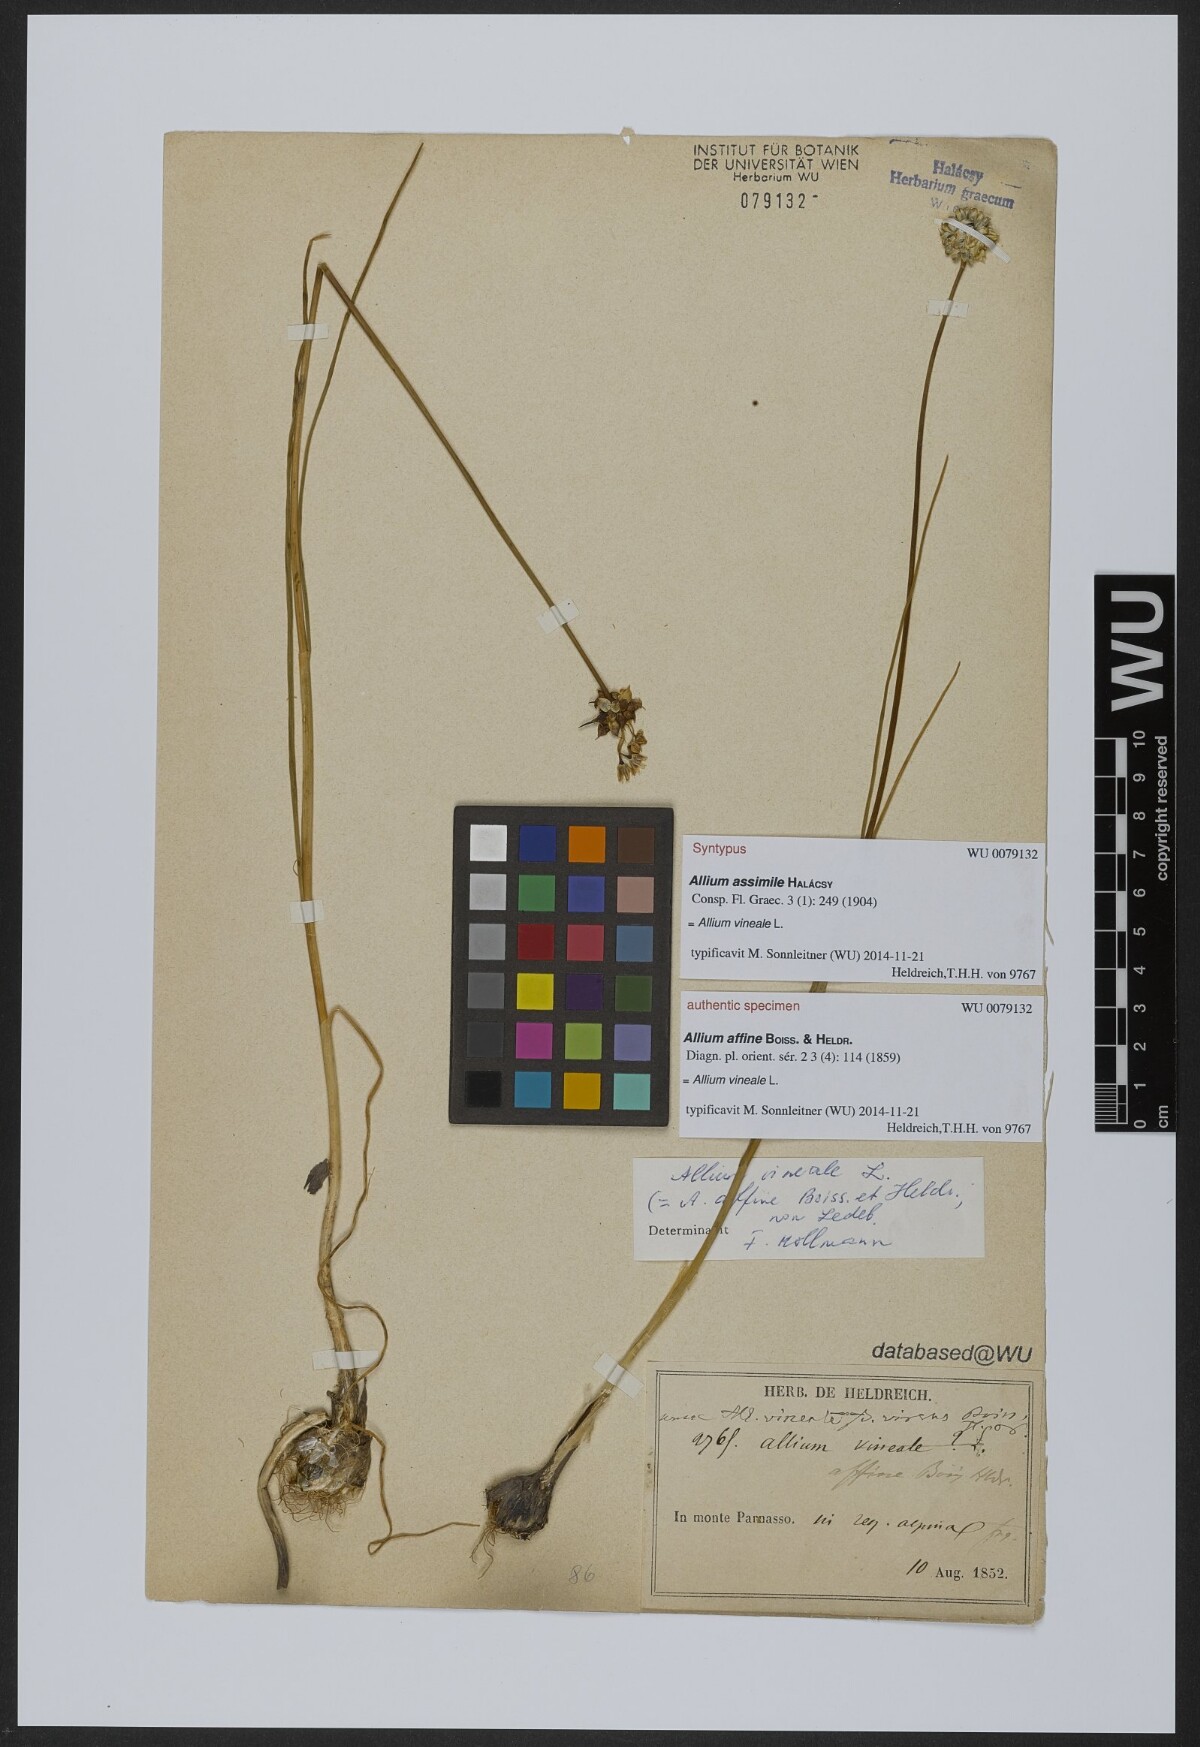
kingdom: Plantae
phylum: Tracheophyta
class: Liliopsida
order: Asparagales
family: Amaryllidaceae
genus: Allium
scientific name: Allium vineale
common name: Crow garlic
